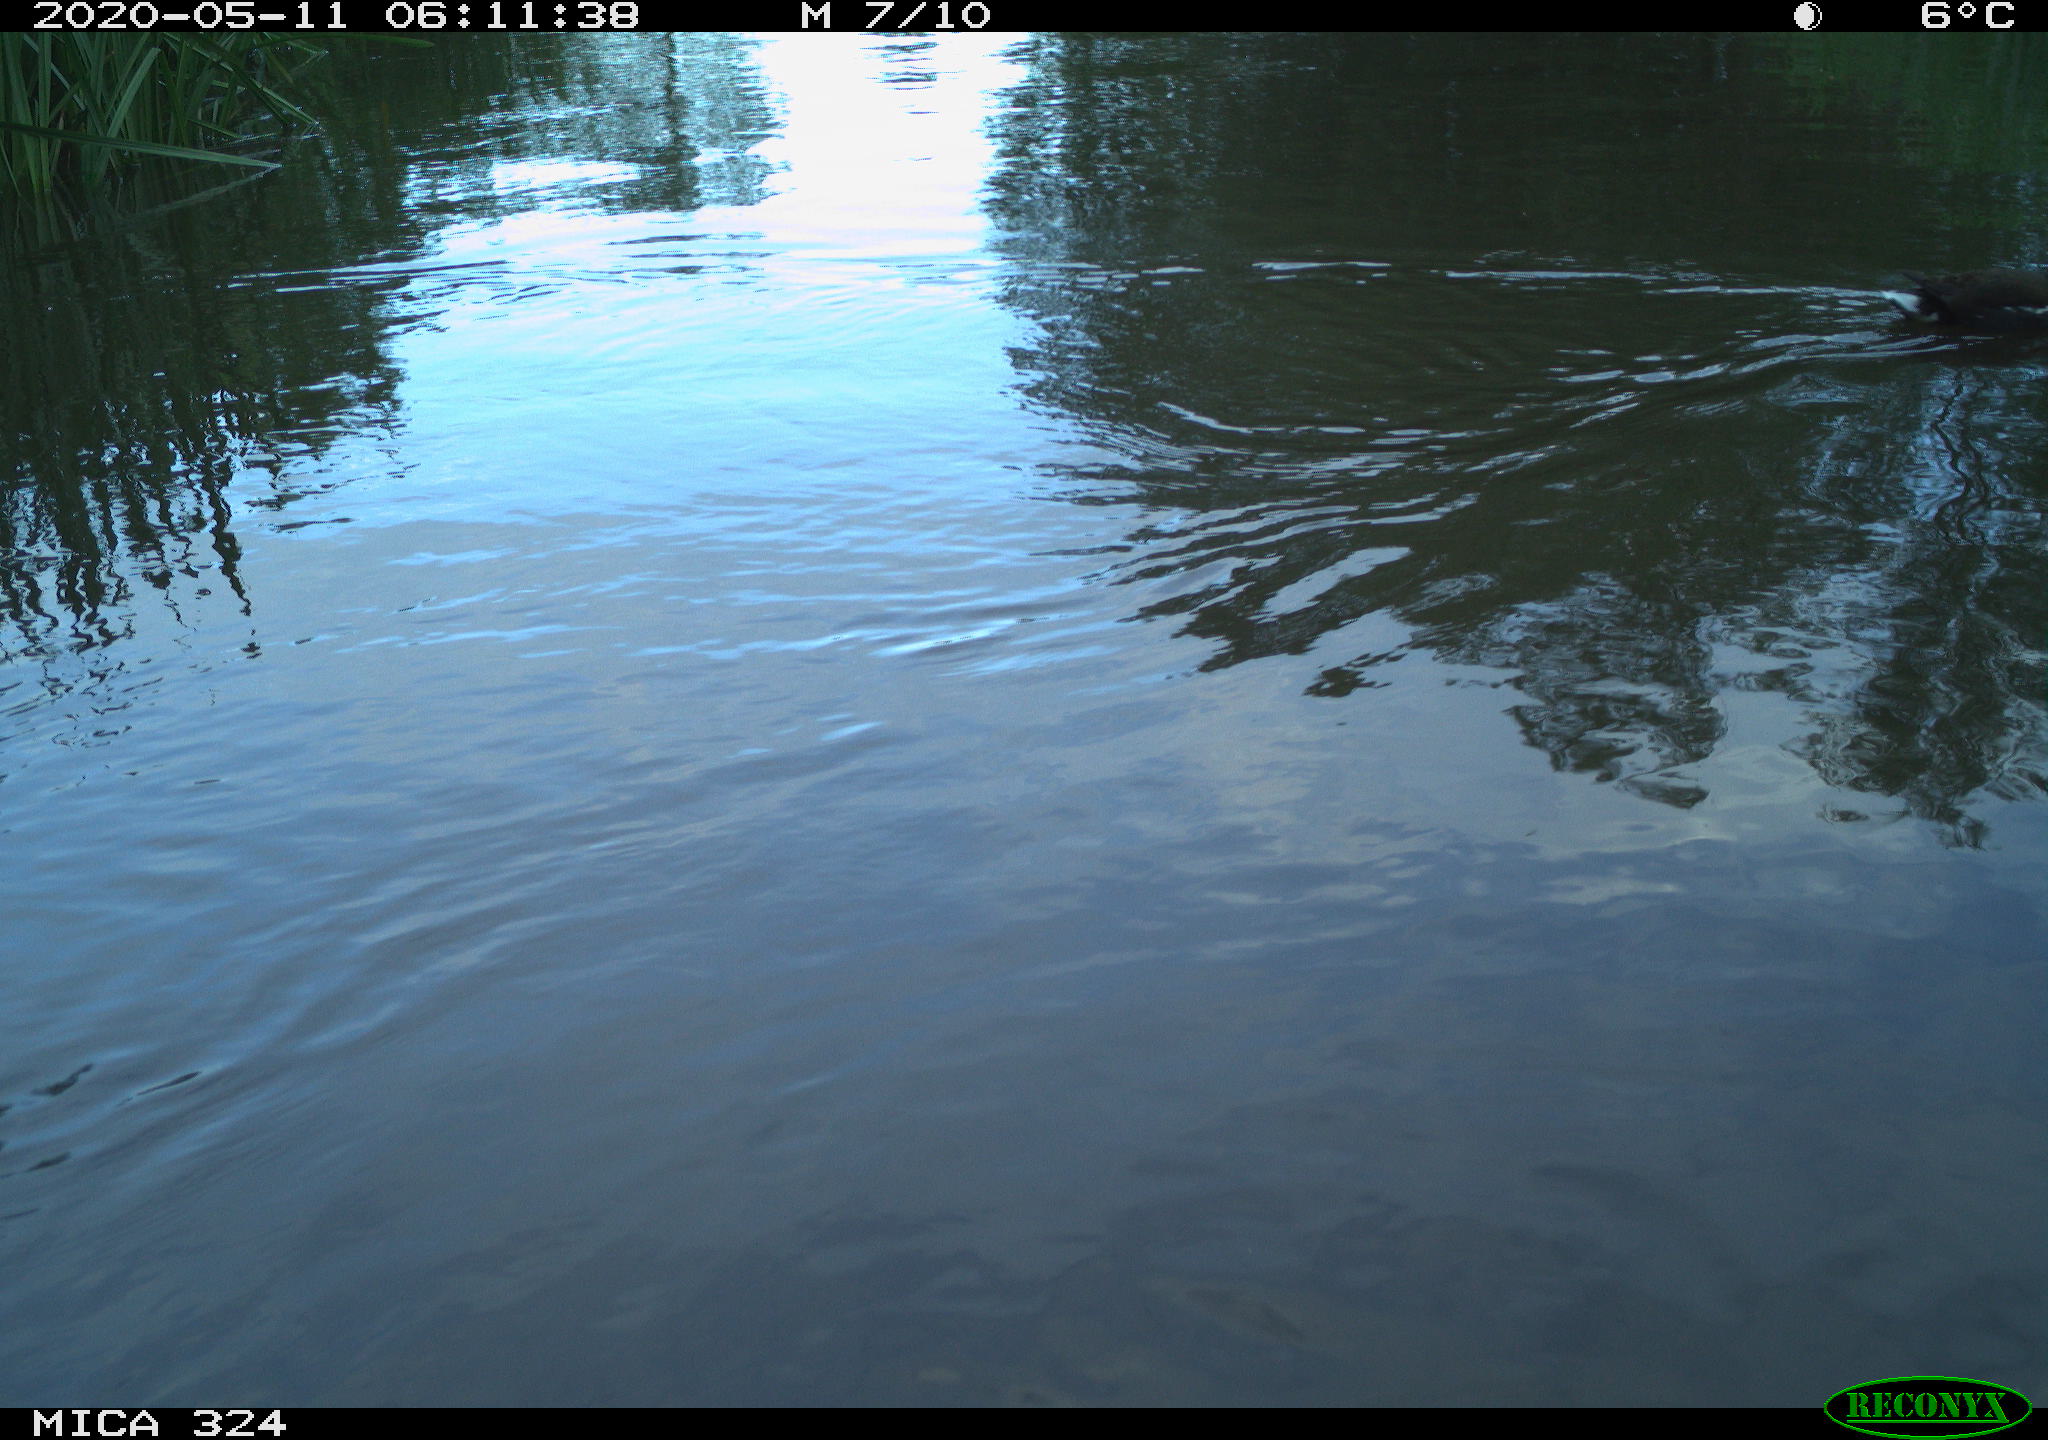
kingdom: Animalia
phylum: Chordata
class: Aves
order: Gruiformes
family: Rallidae
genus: Gallinula
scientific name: Gallinula chloropus
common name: Common moorhen
